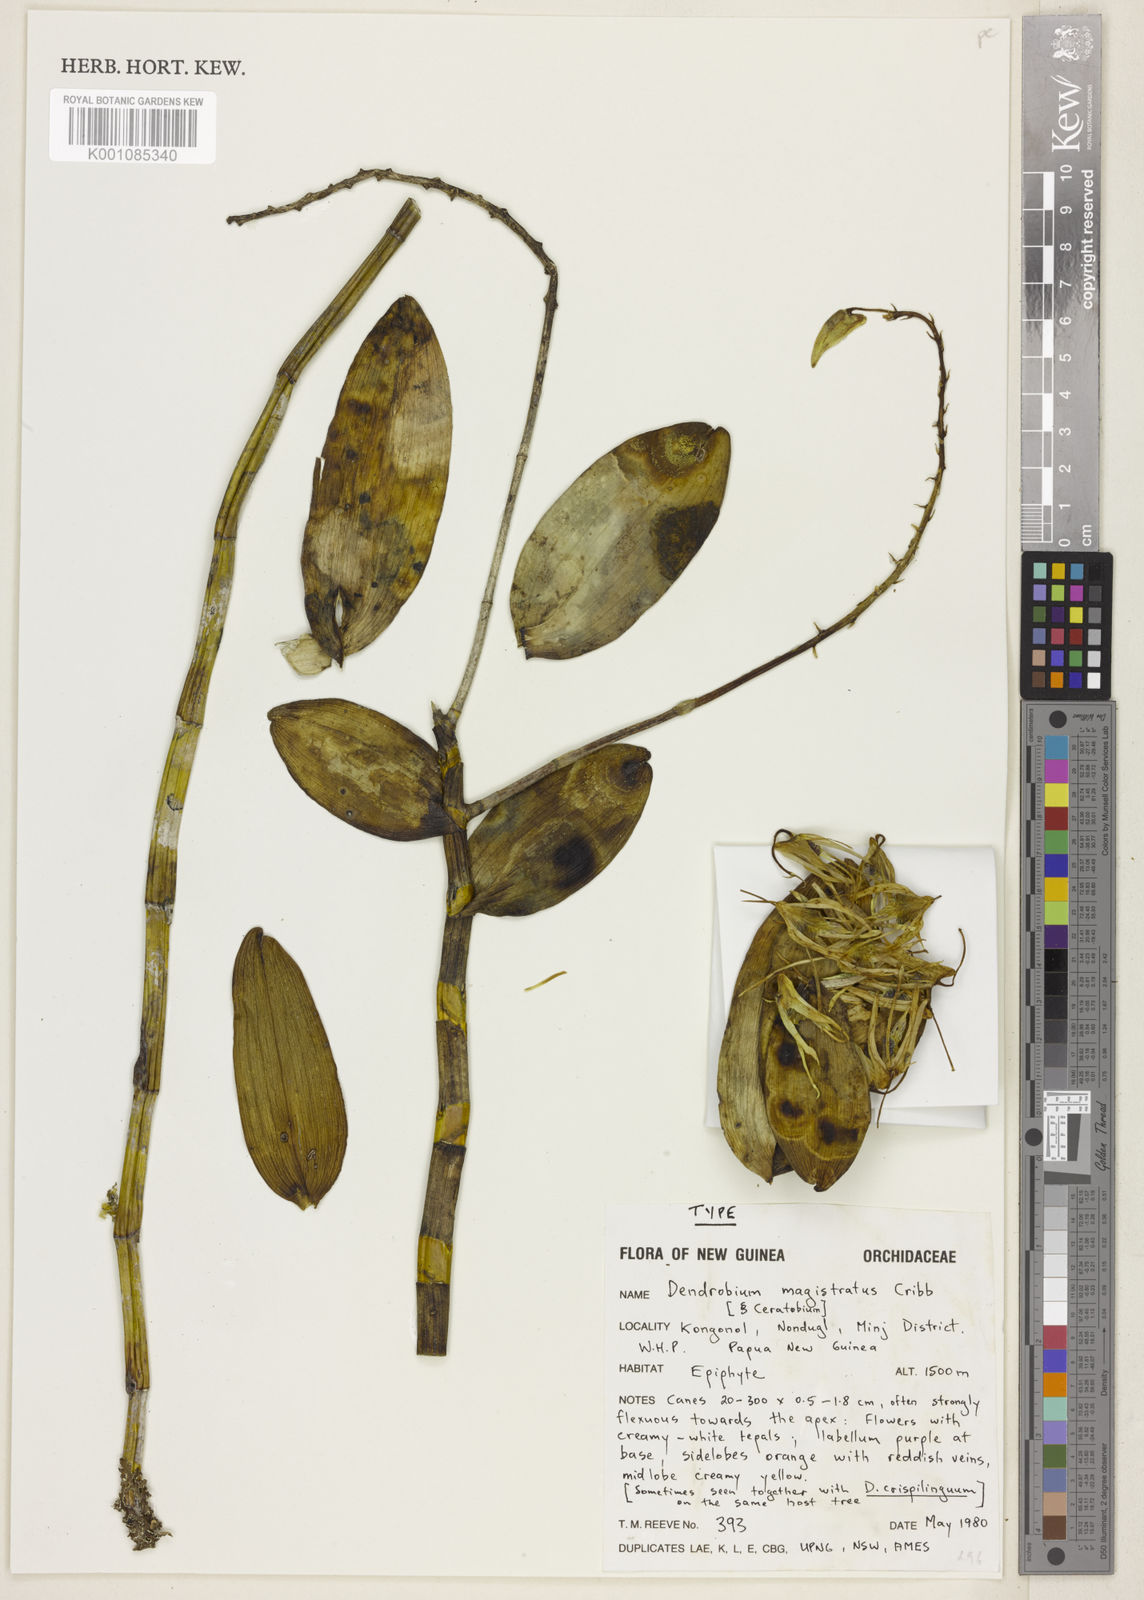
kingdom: Plantae
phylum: Tracheophyta
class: Liliopsida
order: Asparagales
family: Orchidaceae
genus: Dendrobium
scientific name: Dendrobium
